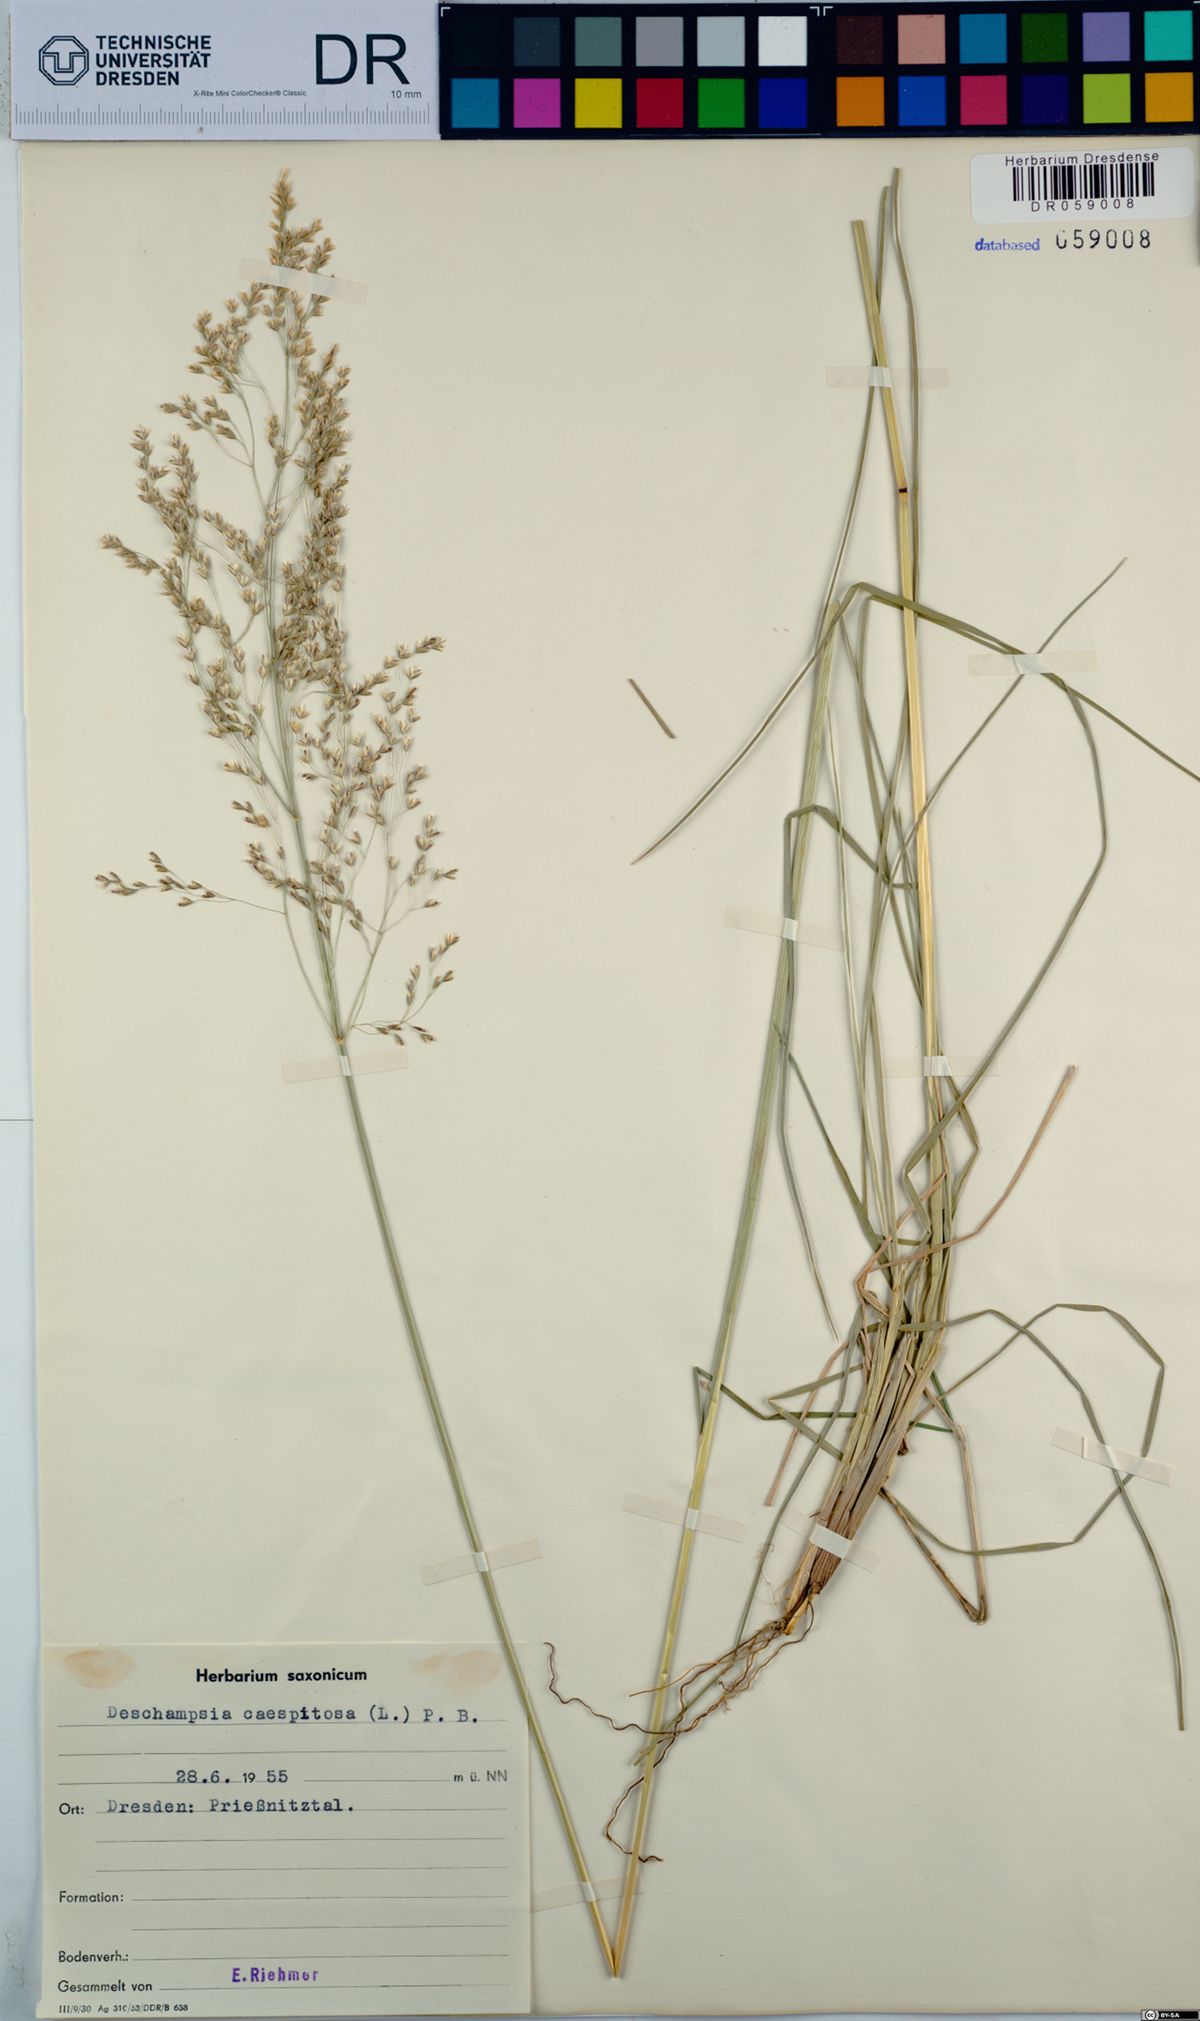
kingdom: Plantae
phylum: Tracheophyta
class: Liliopsida
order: Poales
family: Poaceae
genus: Deschampsia
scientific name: Deschampsia cespitosa
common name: Tufted hair-grass
